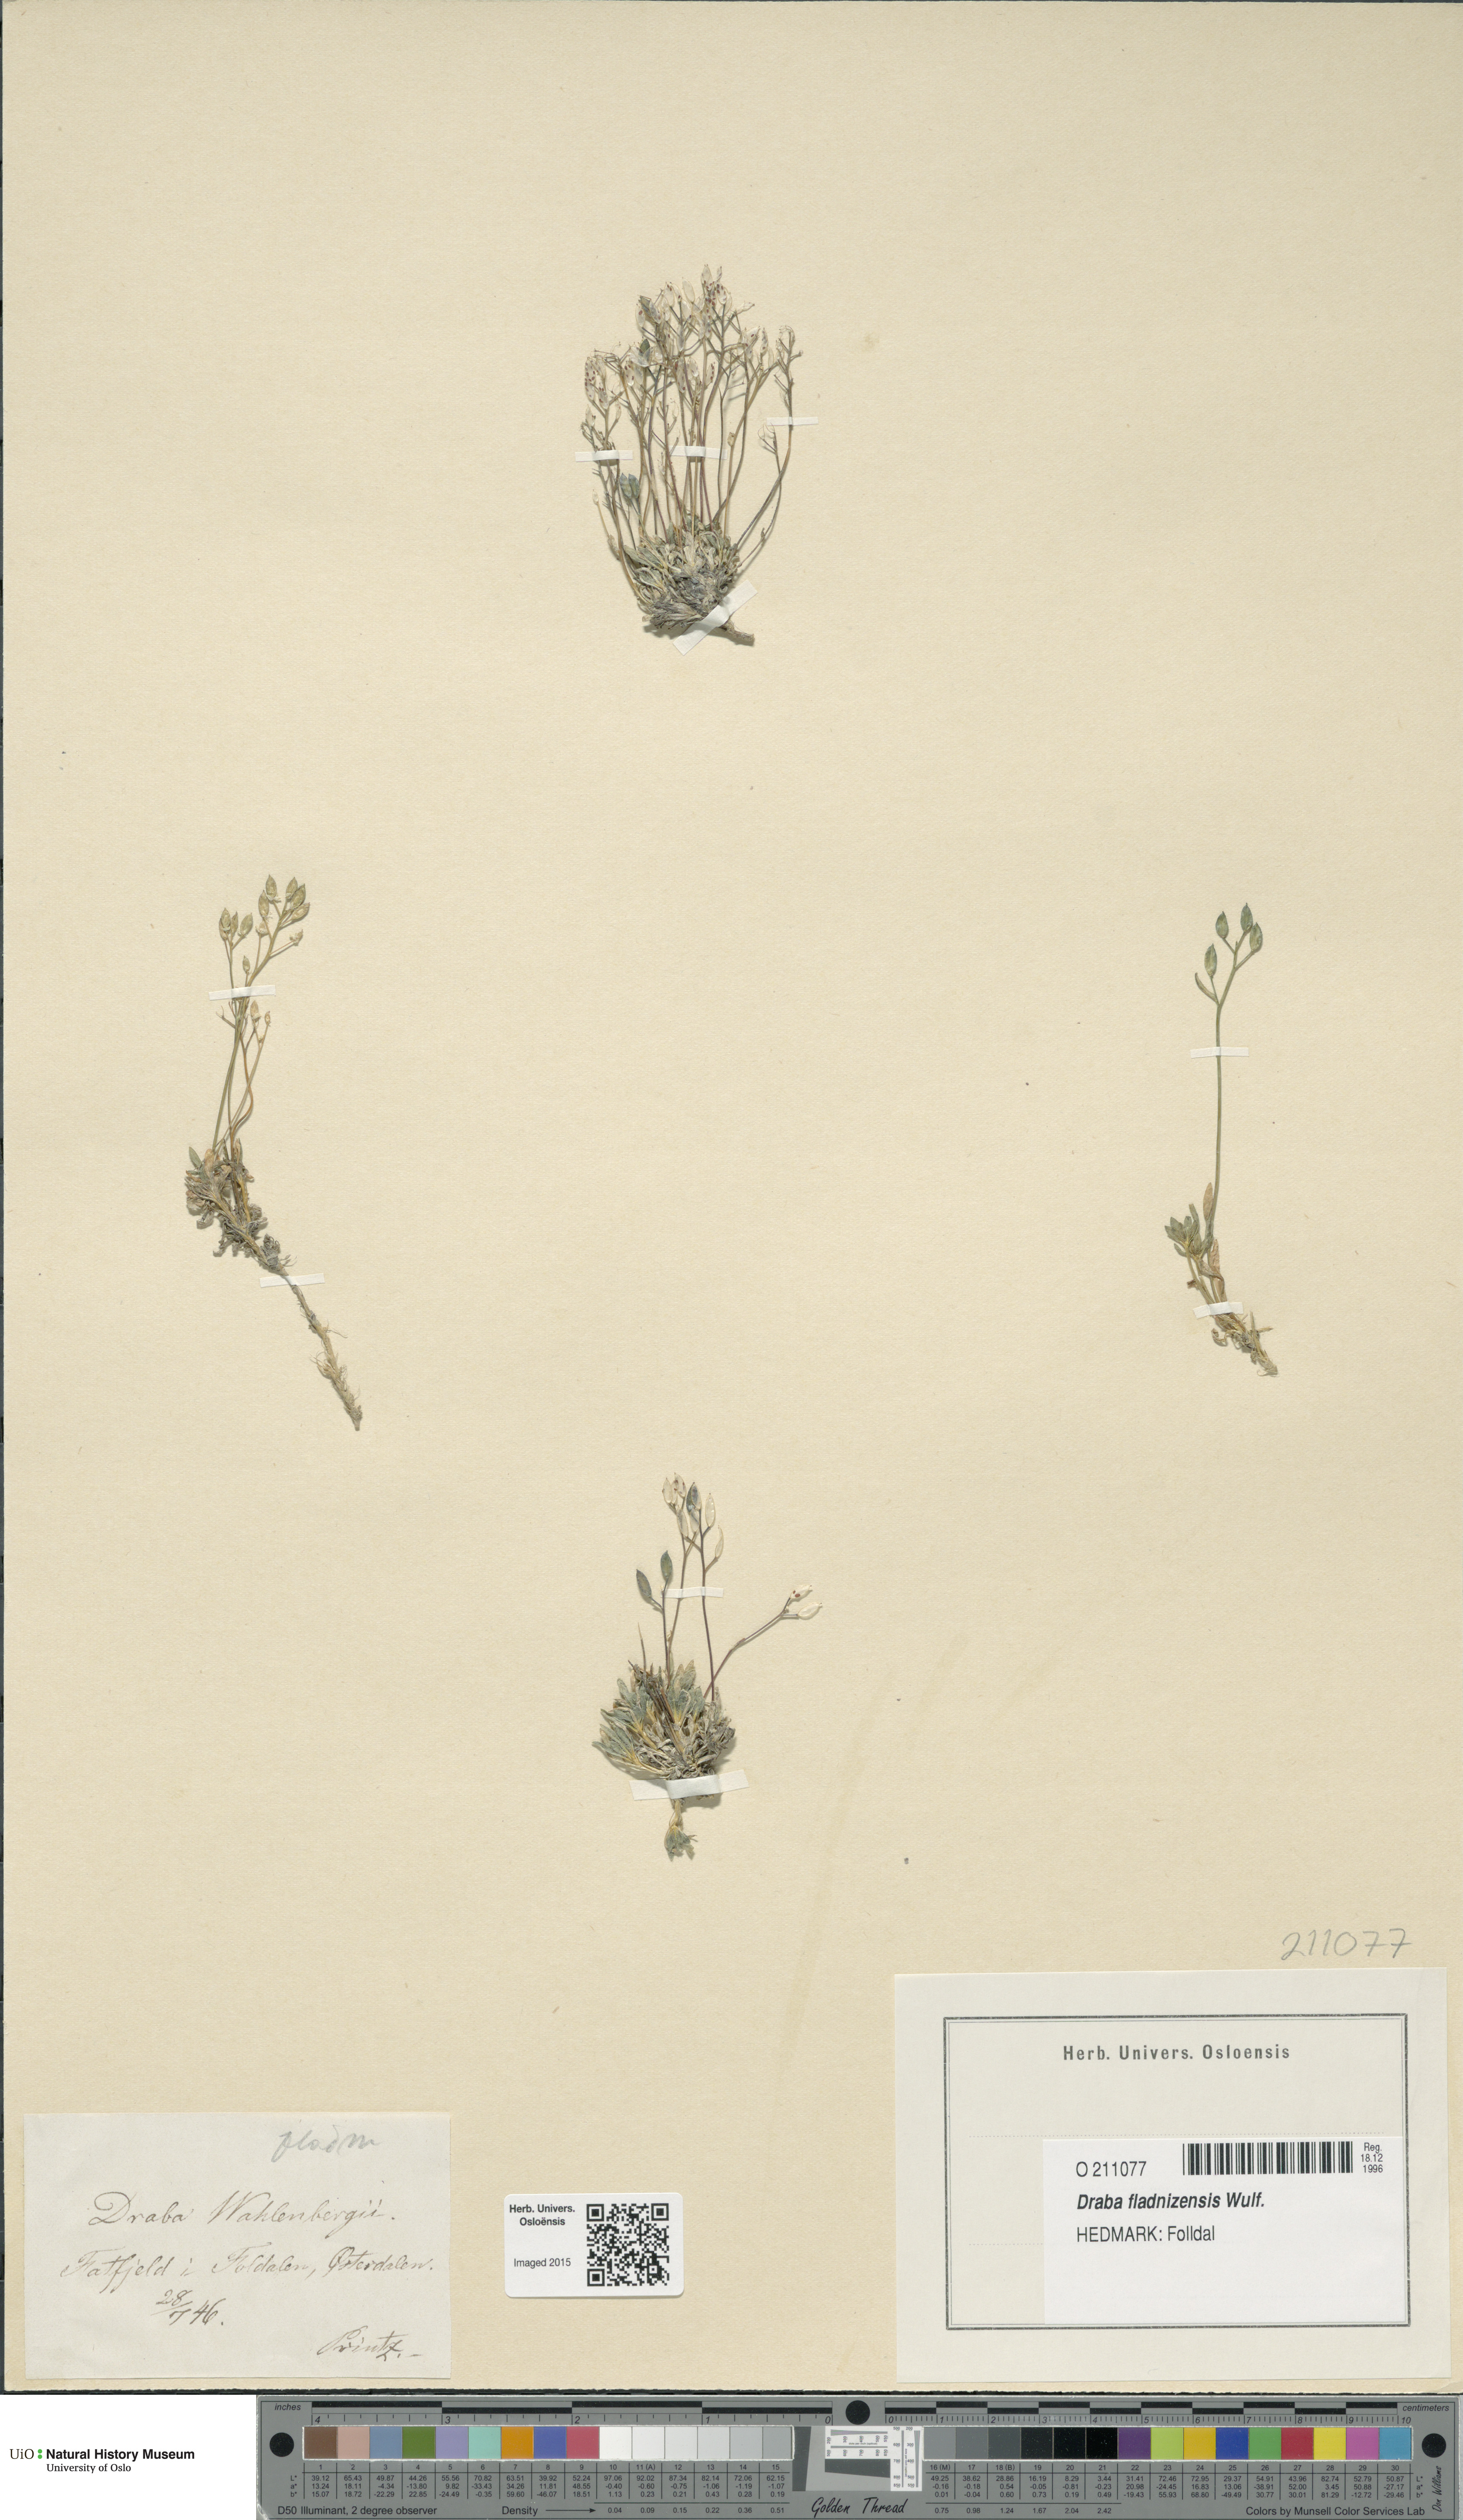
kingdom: Plantae
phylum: Tracheophyta
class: Magnoliopsida
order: Brassicales
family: Brassicaceae
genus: Draba
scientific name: Draba fladnizensis
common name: Austrian draba
